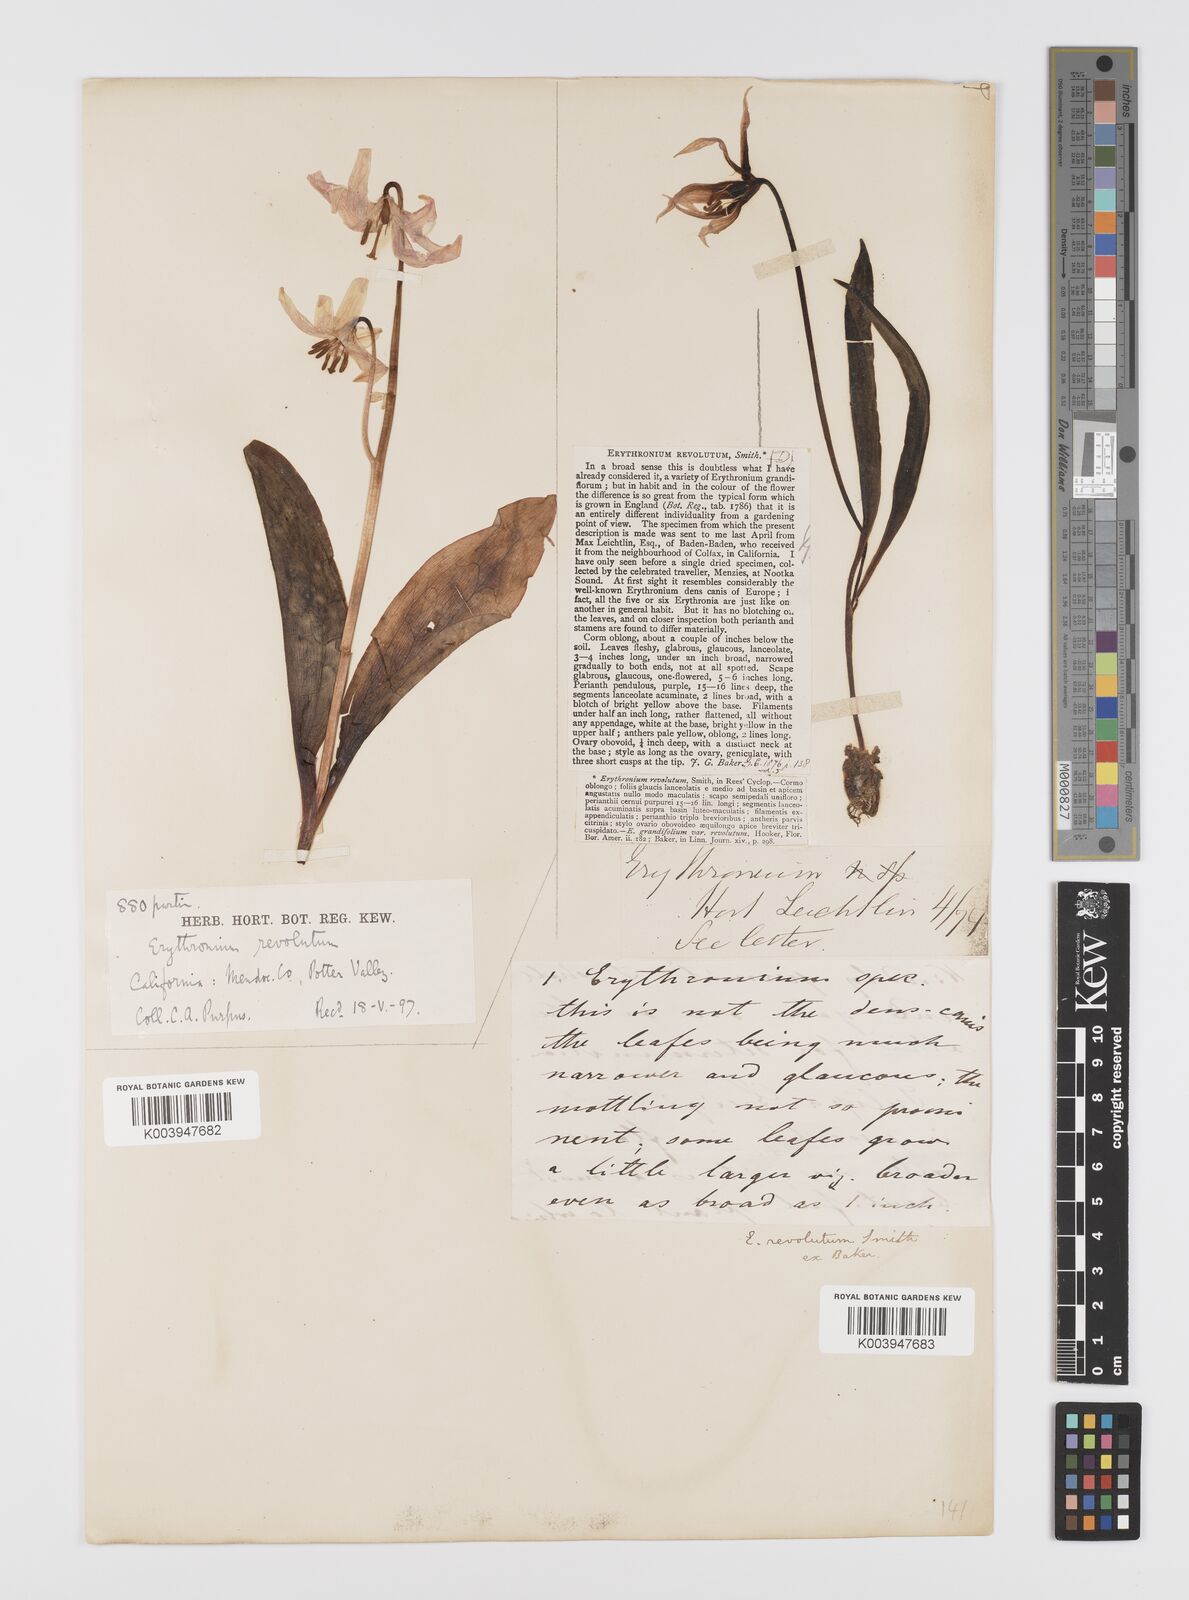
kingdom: Plantae
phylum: Tracheophyta
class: Liliopsida
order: Liliales
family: Liliaceae
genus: Erythronium
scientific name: Erythronium purpurascens
